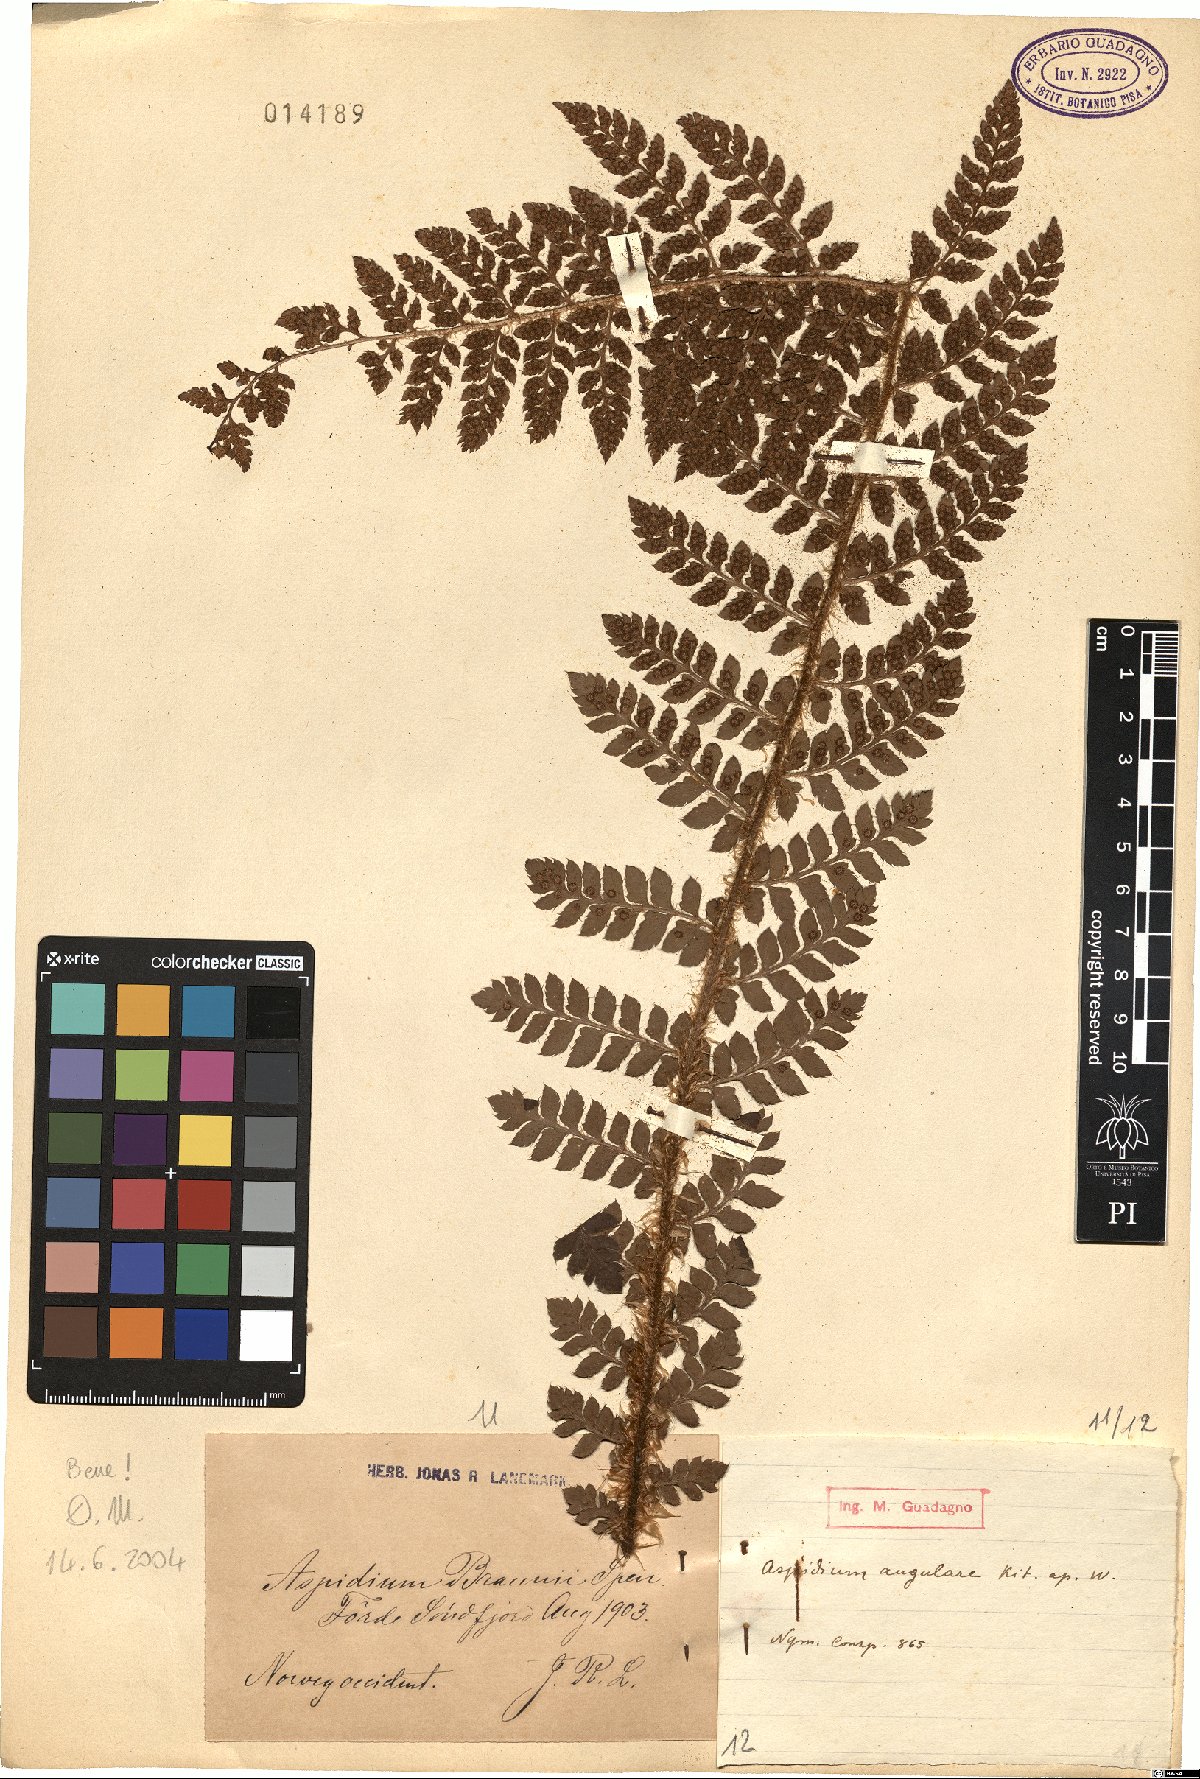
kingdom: Plantae
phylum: Tracheophyta
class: Polypodiopsida
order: Polypodiales
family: Dryopteridaceae
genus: Polystichum
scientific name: Polystichum braunii
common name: Braun's holly fern
